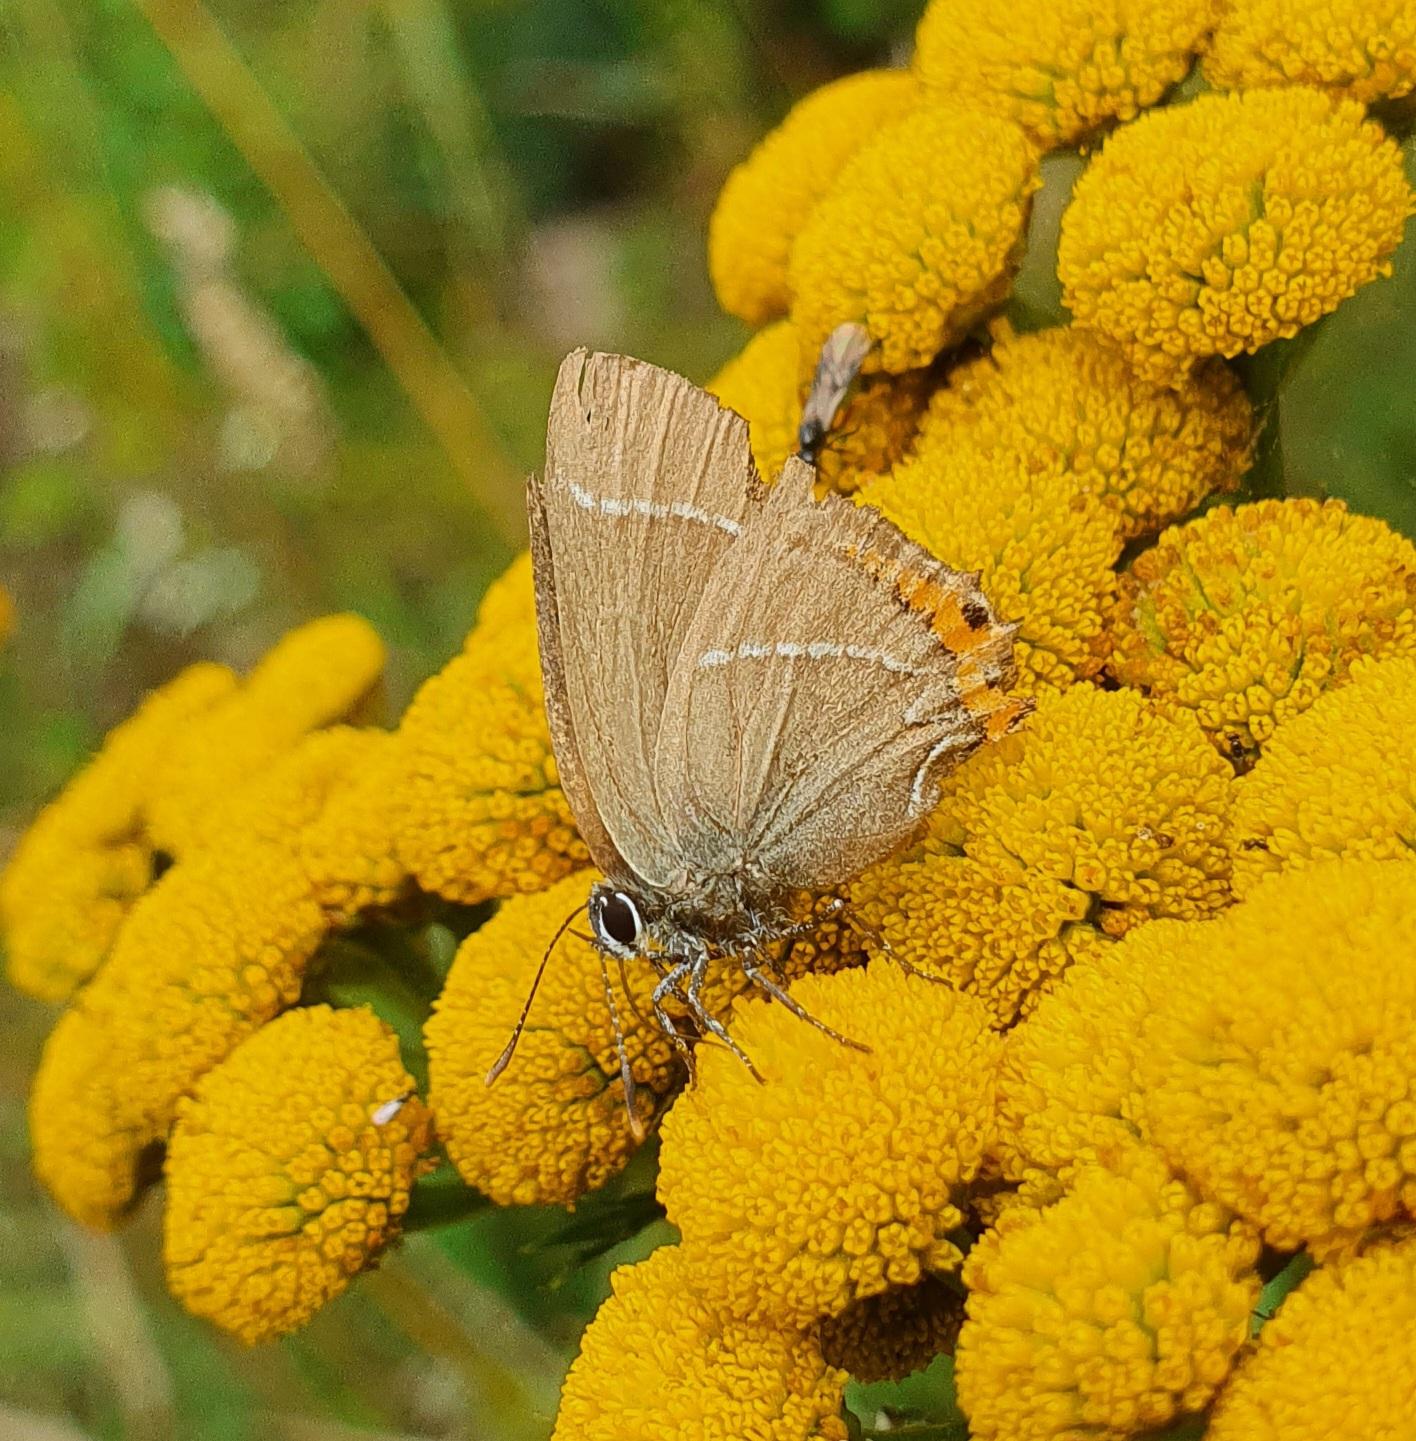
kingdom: Animalia
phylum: Arthropoda
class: Insecta
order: Lepidoptera
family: Lycaenidae
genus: Satyrium
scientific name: Satyrium w-album
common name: Det hvide W
